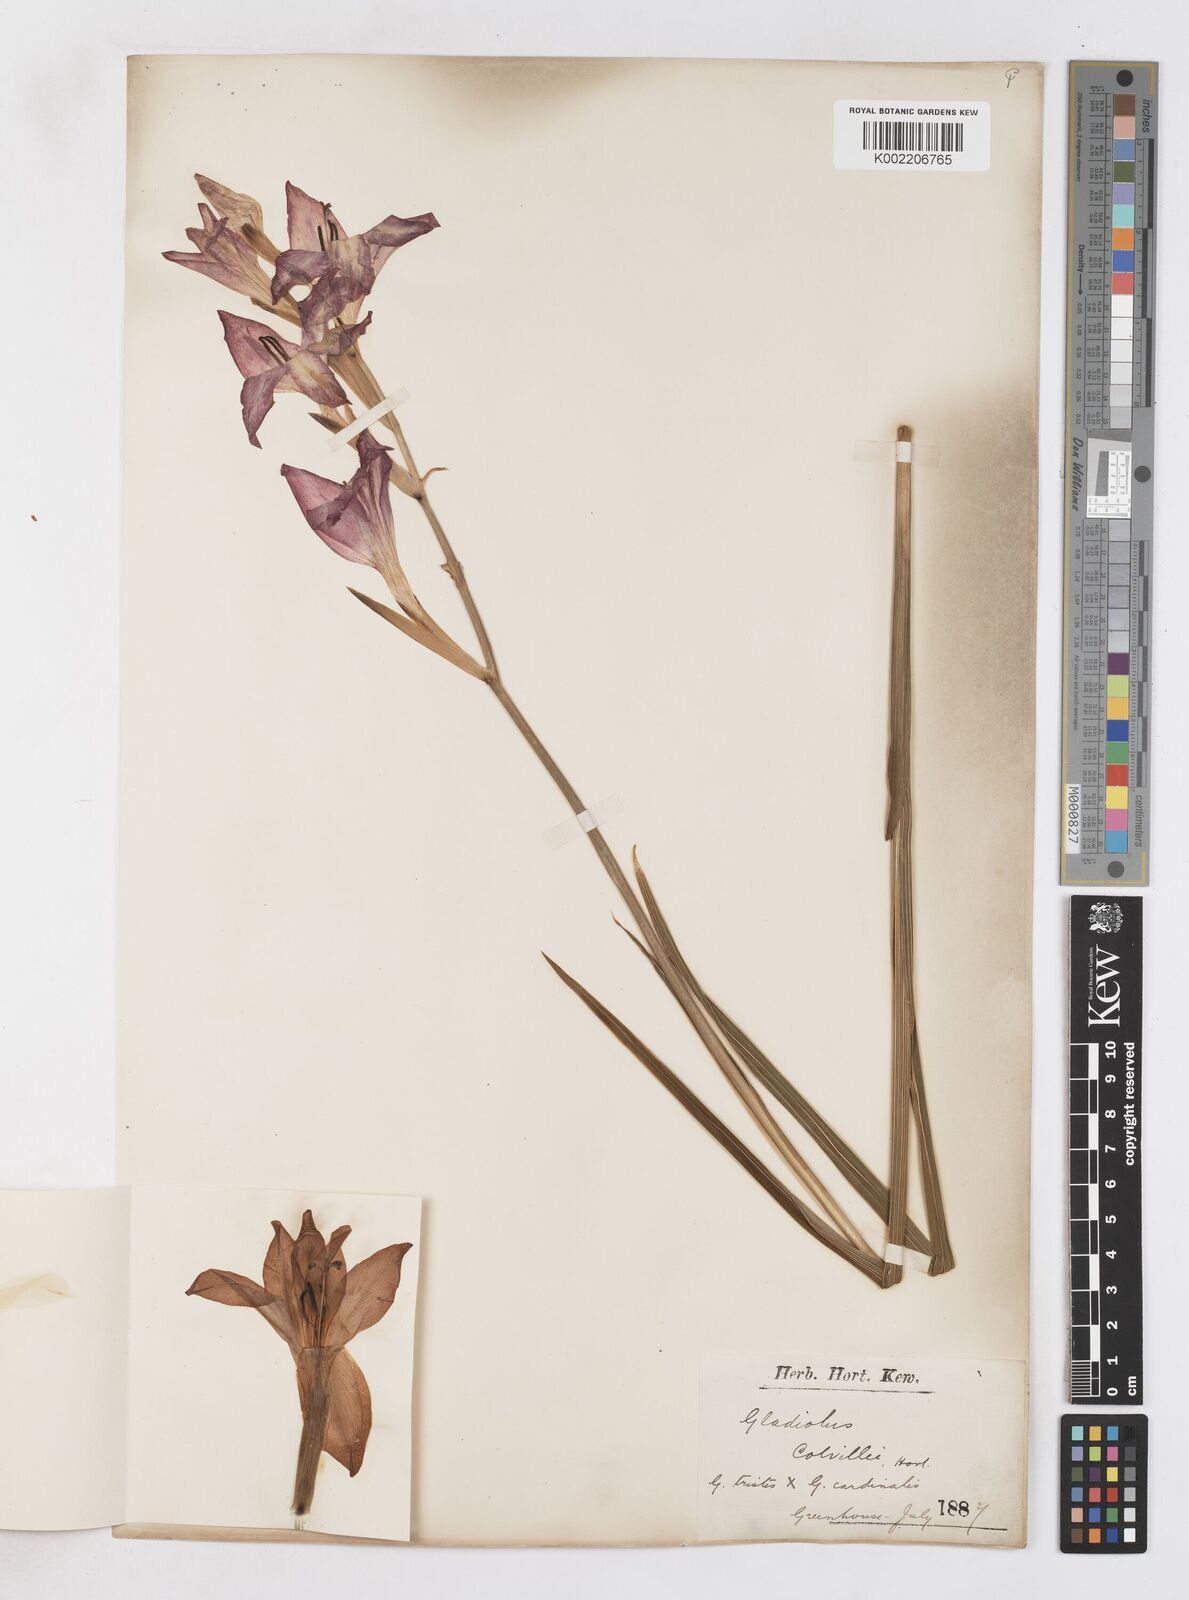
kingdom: Plantae
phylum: Tracheophyta
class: Liliopsida
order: Asparagales
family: Iridaceae
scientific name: Iridaceae
